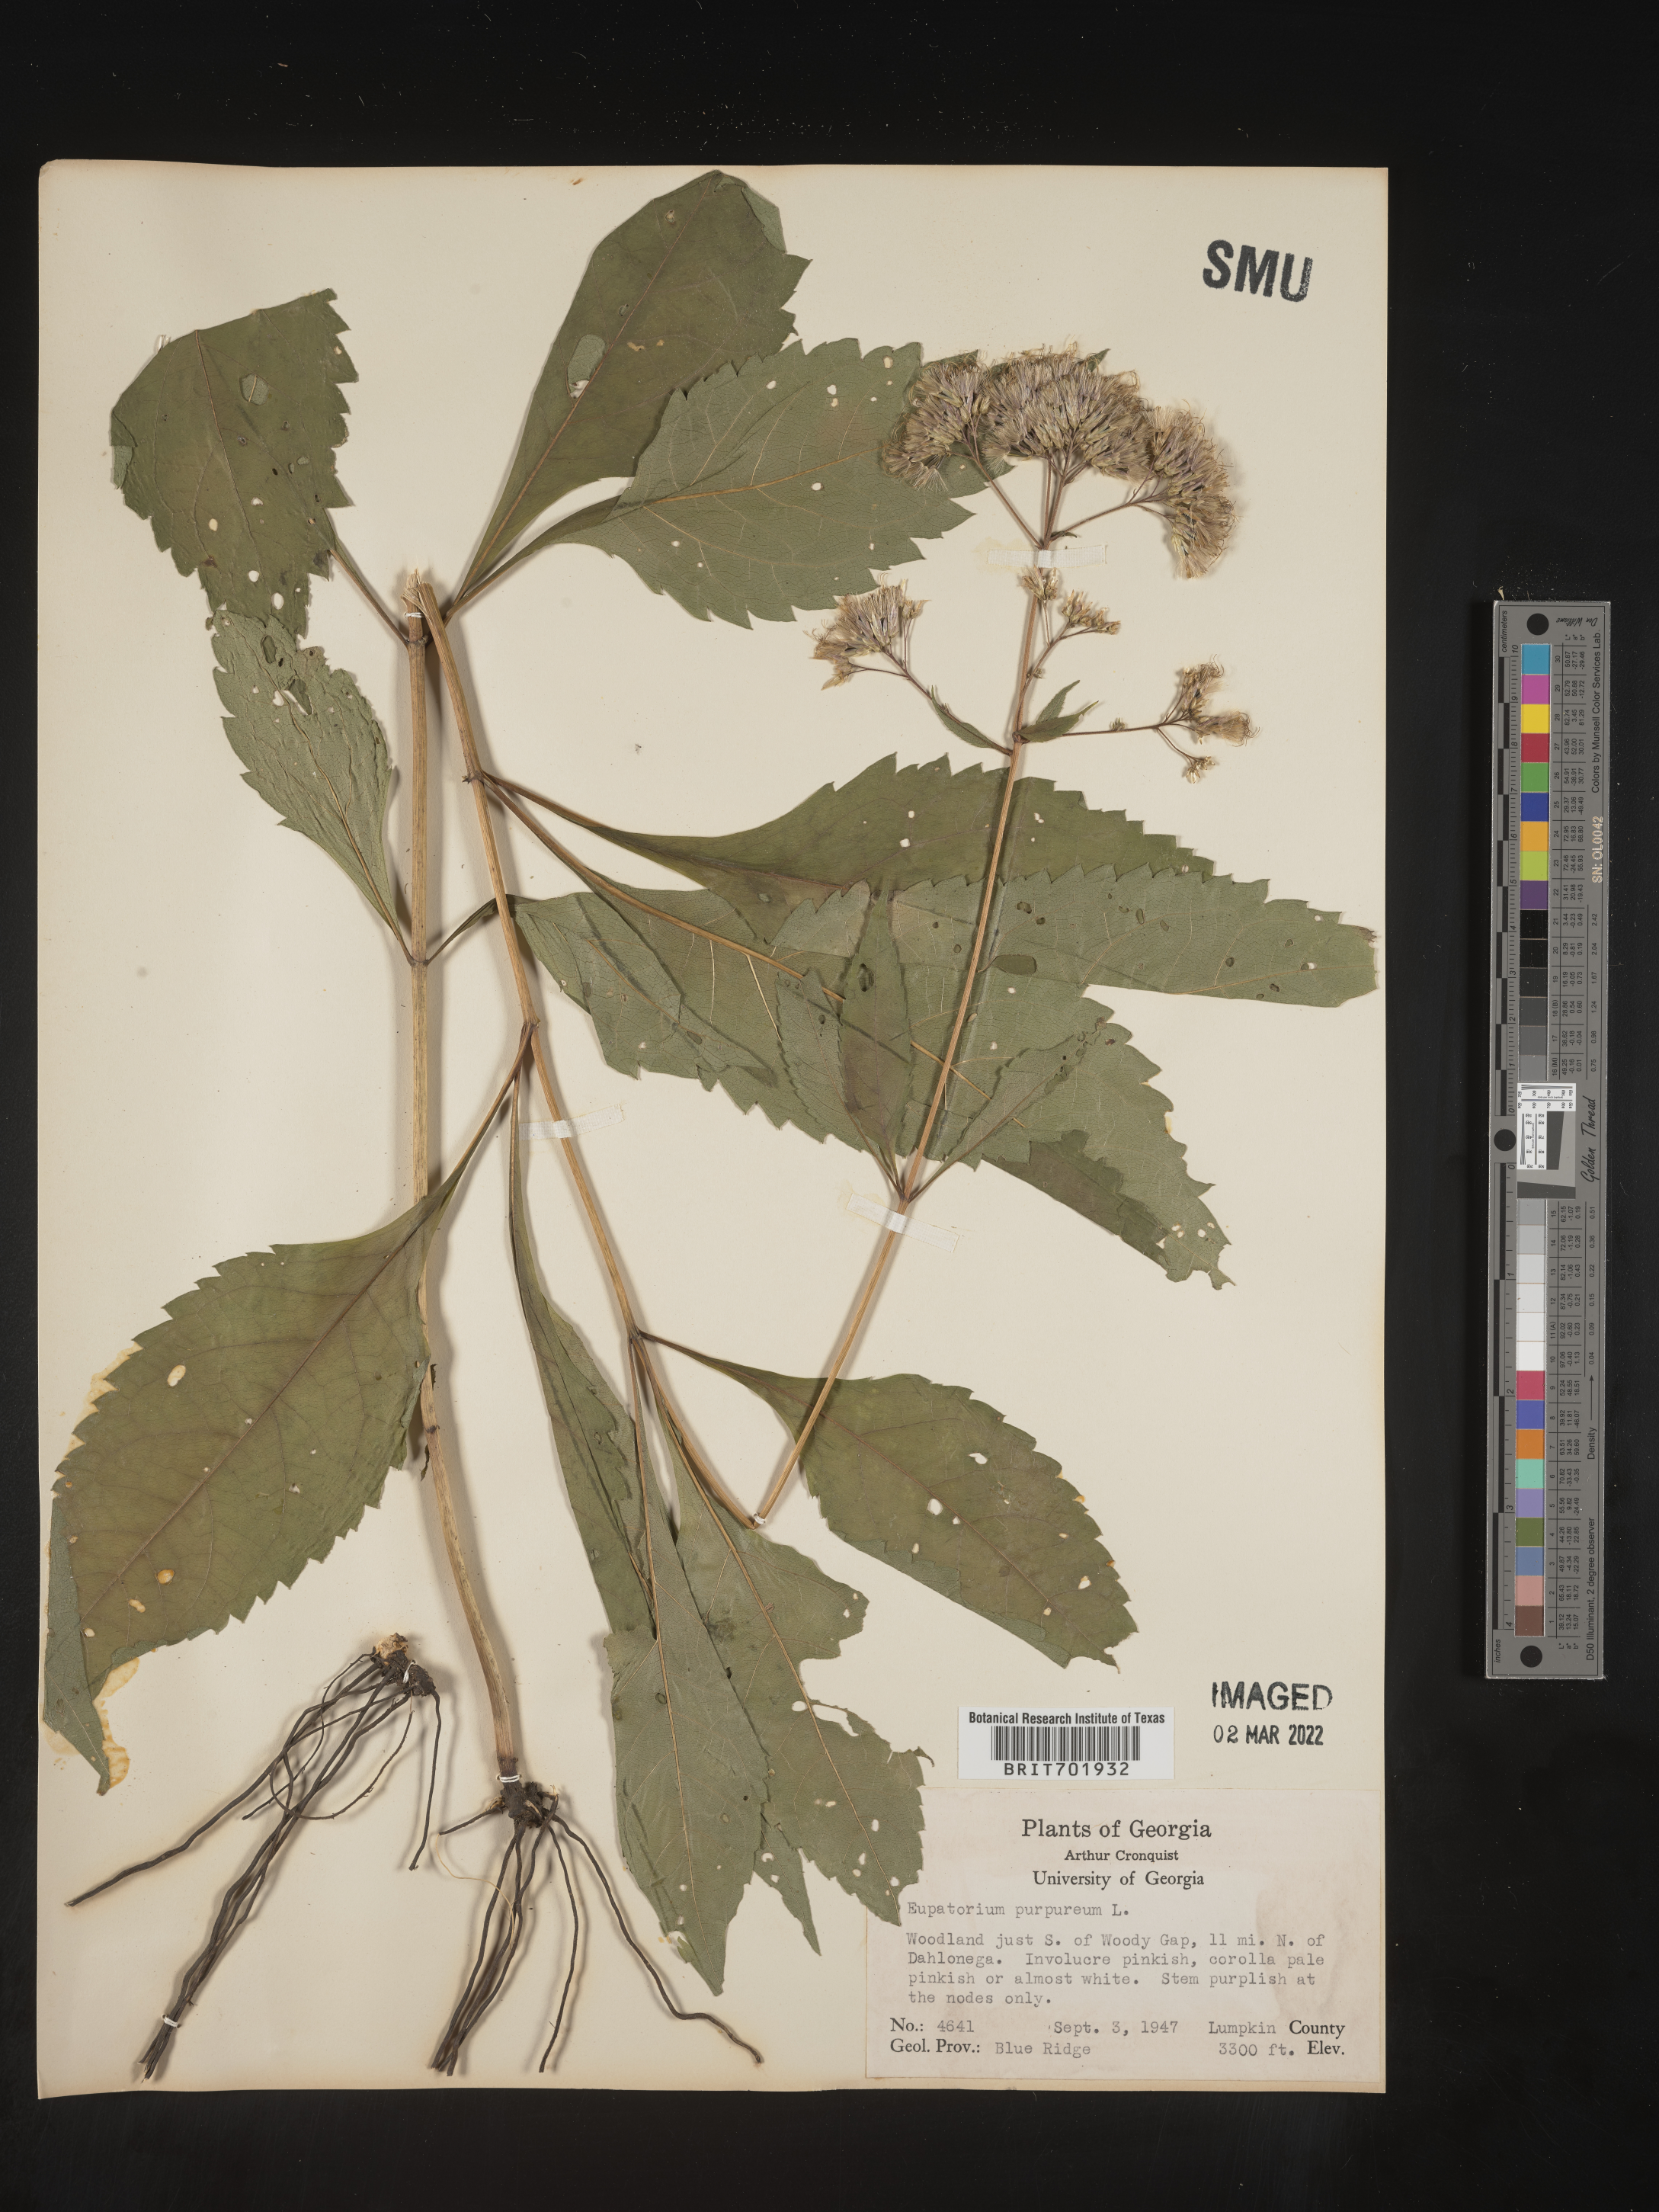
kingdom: Plantae
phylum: Tracheophyta
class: Magnoliopsida
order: Asterales
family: Asteraceae
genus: Eupatorium
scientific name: Eupatorium quaternum
